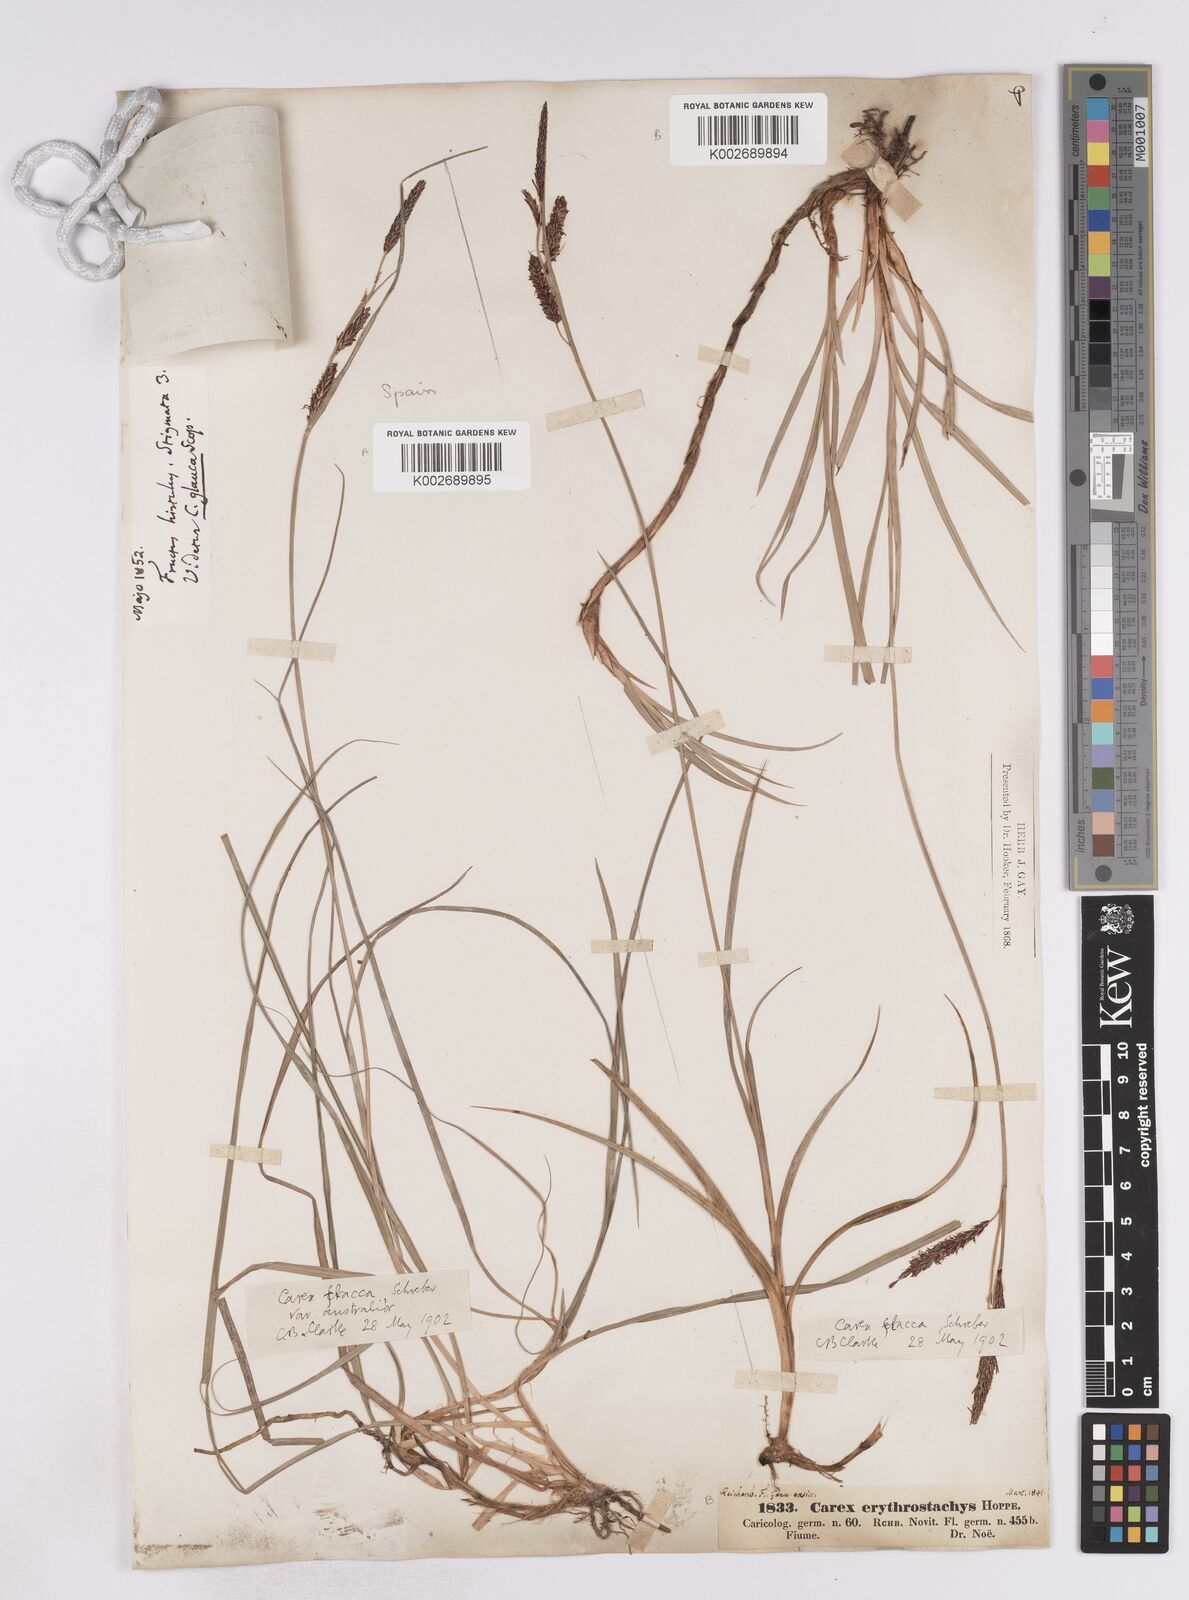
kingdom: Plantae
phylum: Tracheophyta
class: Liliopsida
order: Poales
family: Cyperaceae
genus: Carex
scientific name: Carex flacca
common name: Glaucous sedge
